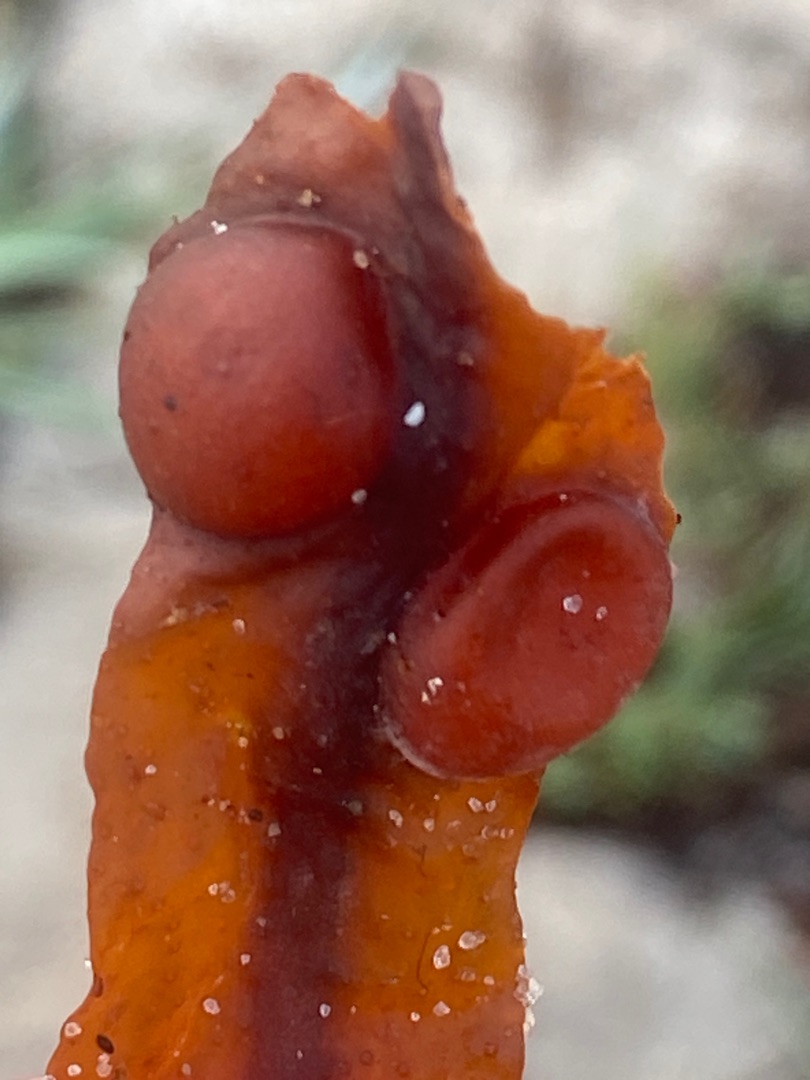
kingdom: Chromista
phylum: Ochrophyta
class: Phaeophyceae
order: Fucales
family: Fucaceae
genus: Fucus
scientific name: Fucus vesiculosus
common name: Blæretang
